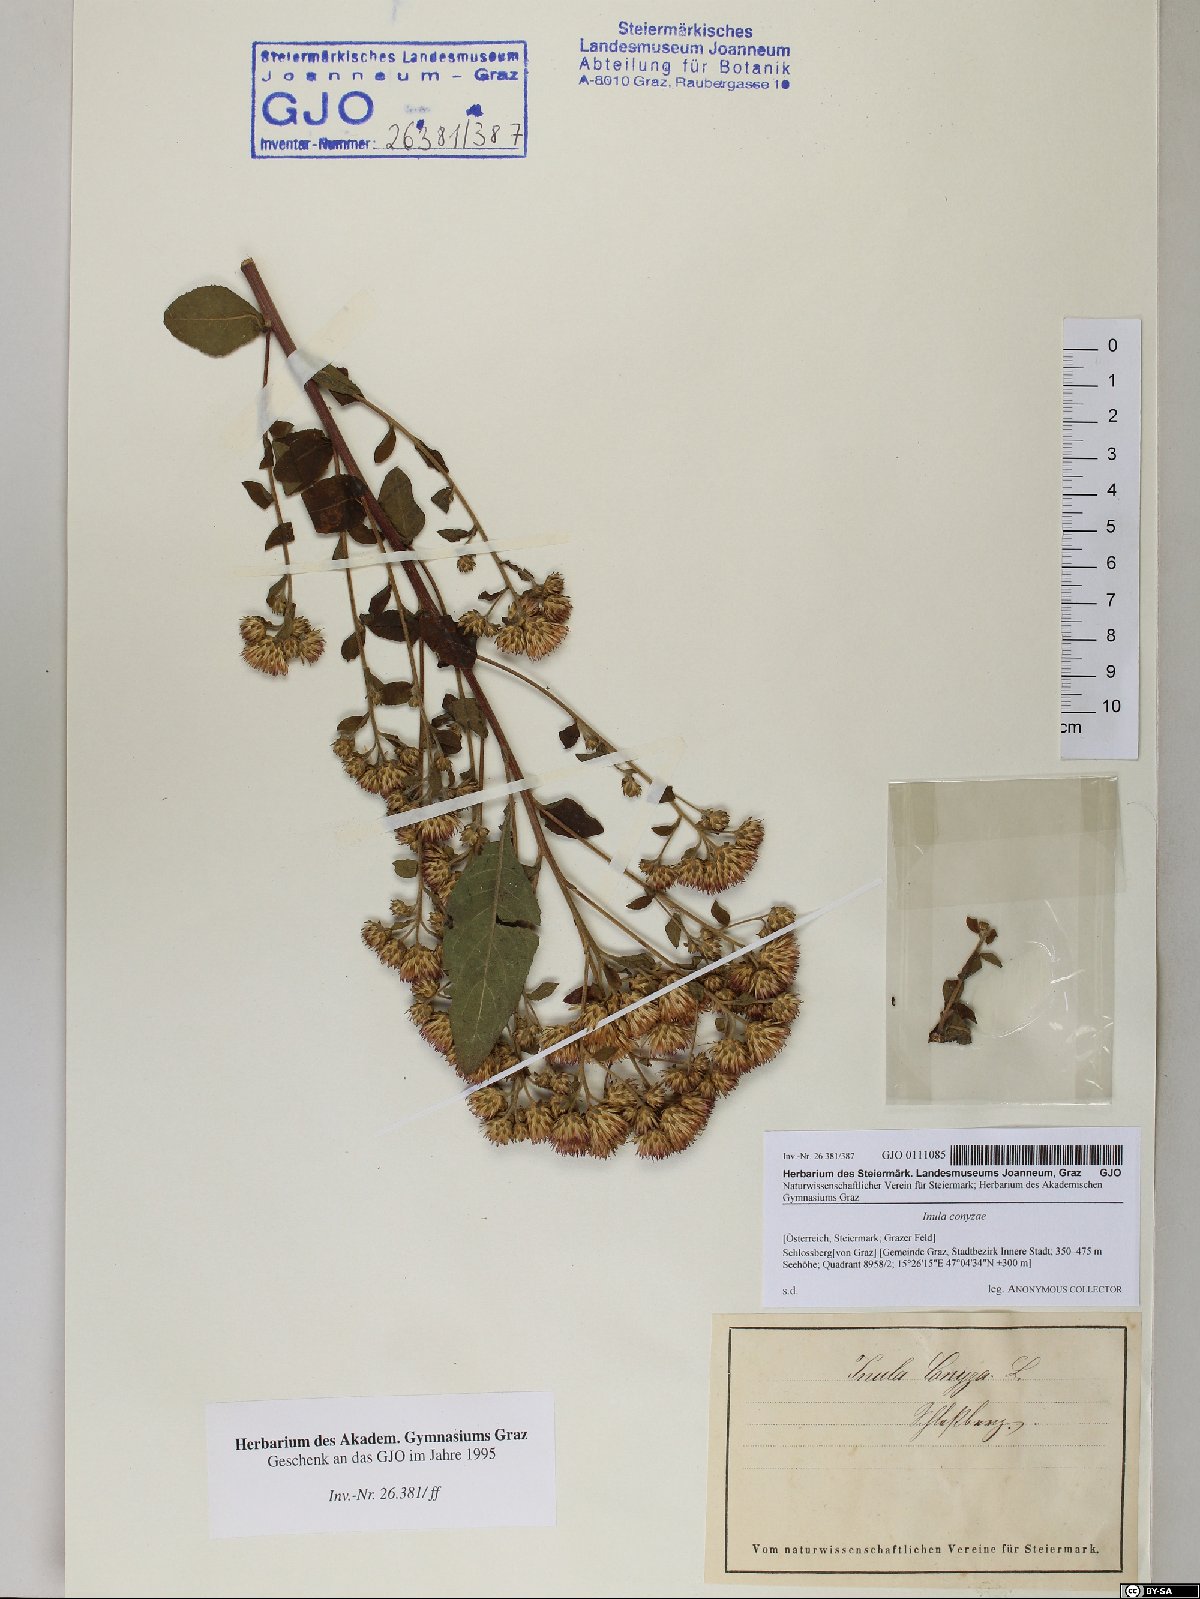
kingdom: Plantae
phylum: Tracheophyta
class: Magnoliopsida
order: Asterales
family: Asteraceae
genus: Pentanema
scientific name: Pentanema squarrosum
